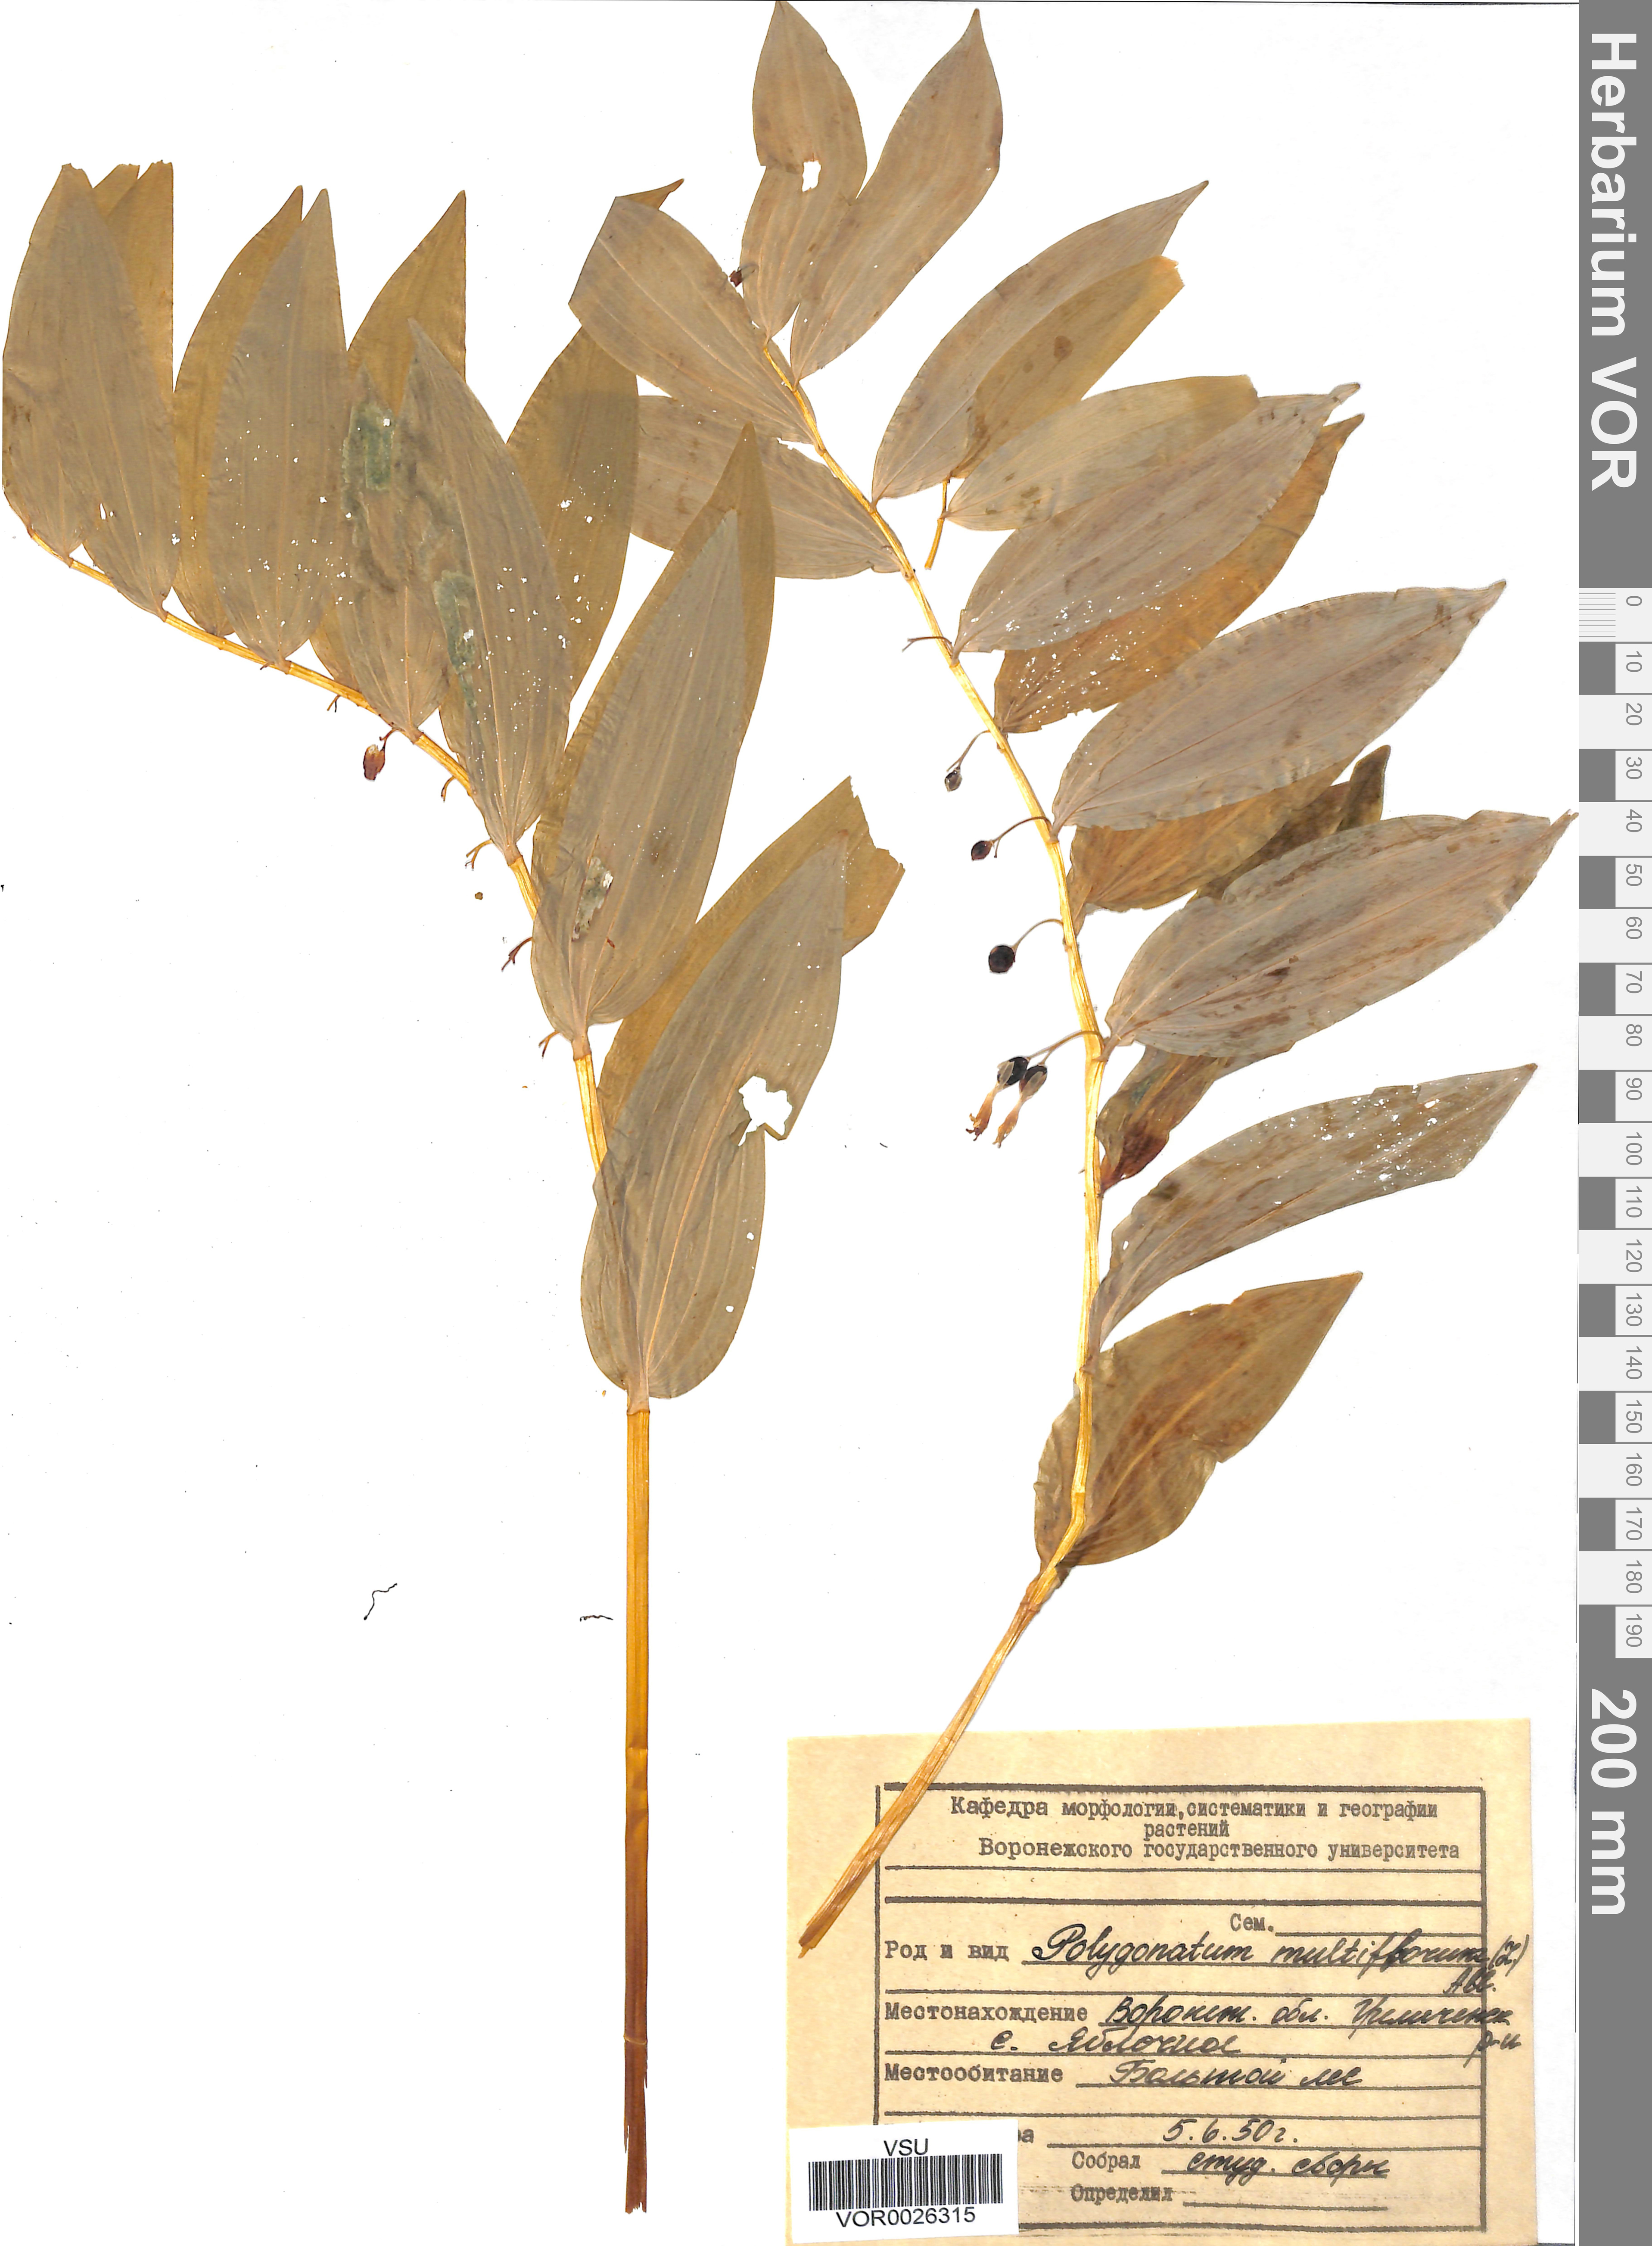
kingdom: Plantae
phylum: Tracheophyta
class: Liliopsida
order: Asparagales
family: Asparagaceae
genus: Polygonatum
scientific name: Polygonatum multiflorum
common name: Solomon's-seal
